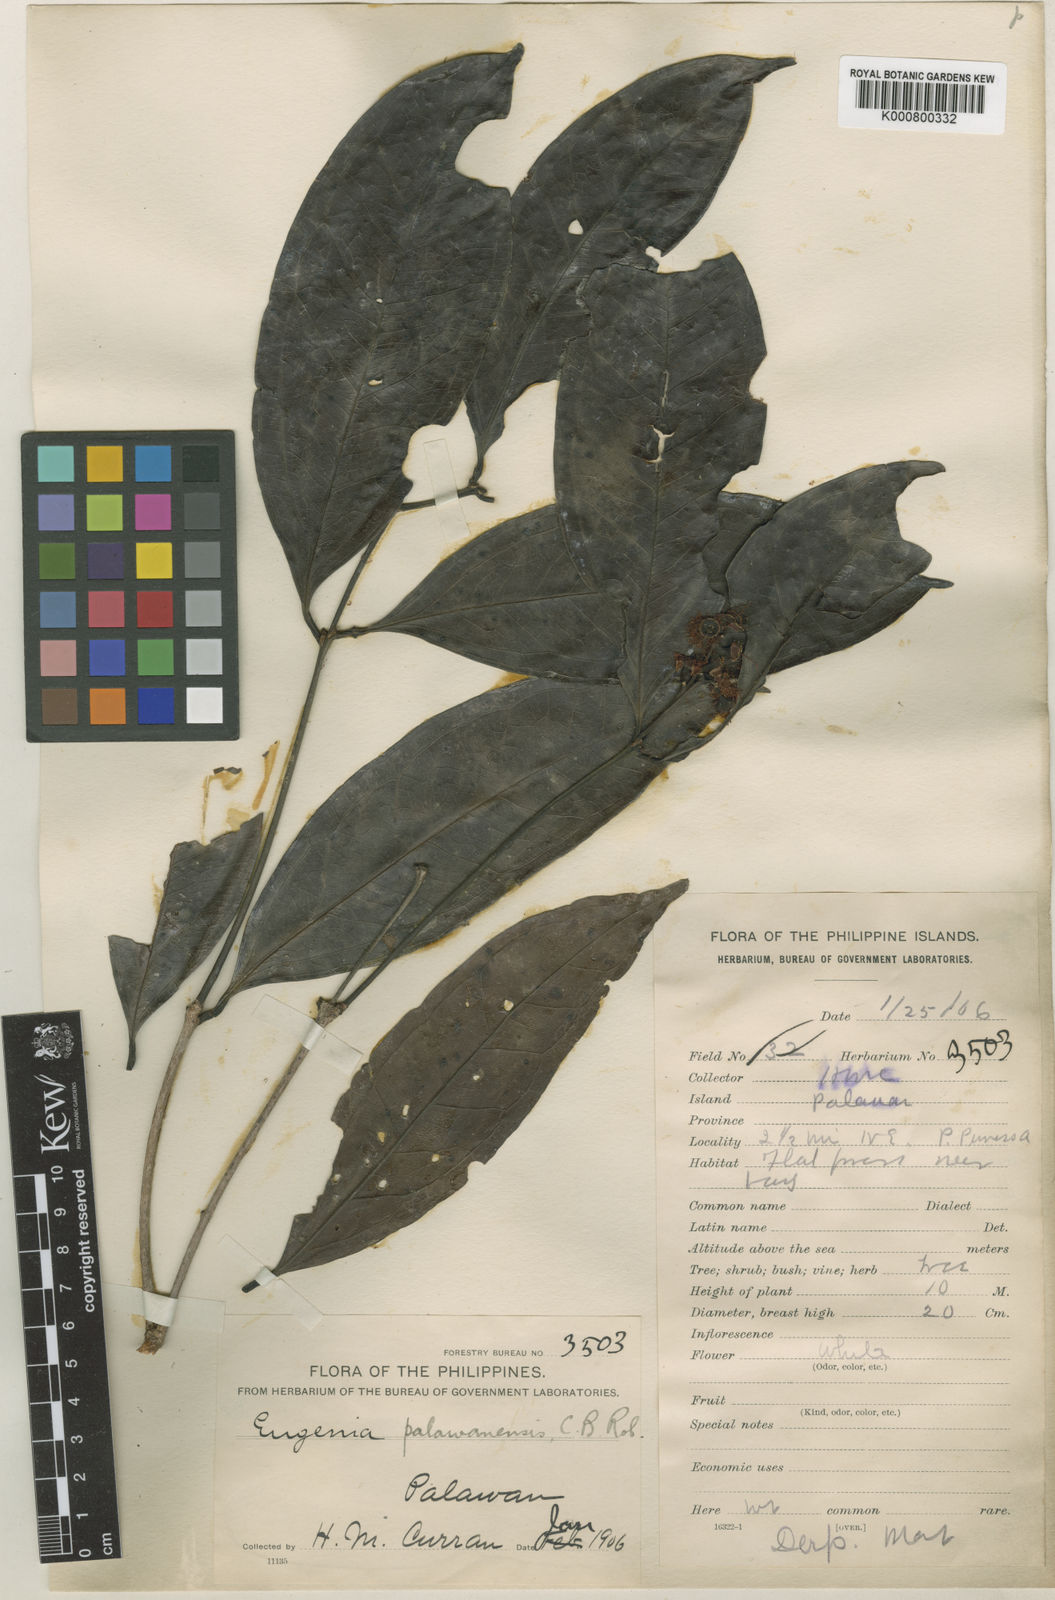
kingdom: Plantae
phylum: Tracheophyta
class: Magnoliopsida
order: Myrtales
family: Myrtaceae
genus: Syzygium
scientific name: Syzygium palawanense
